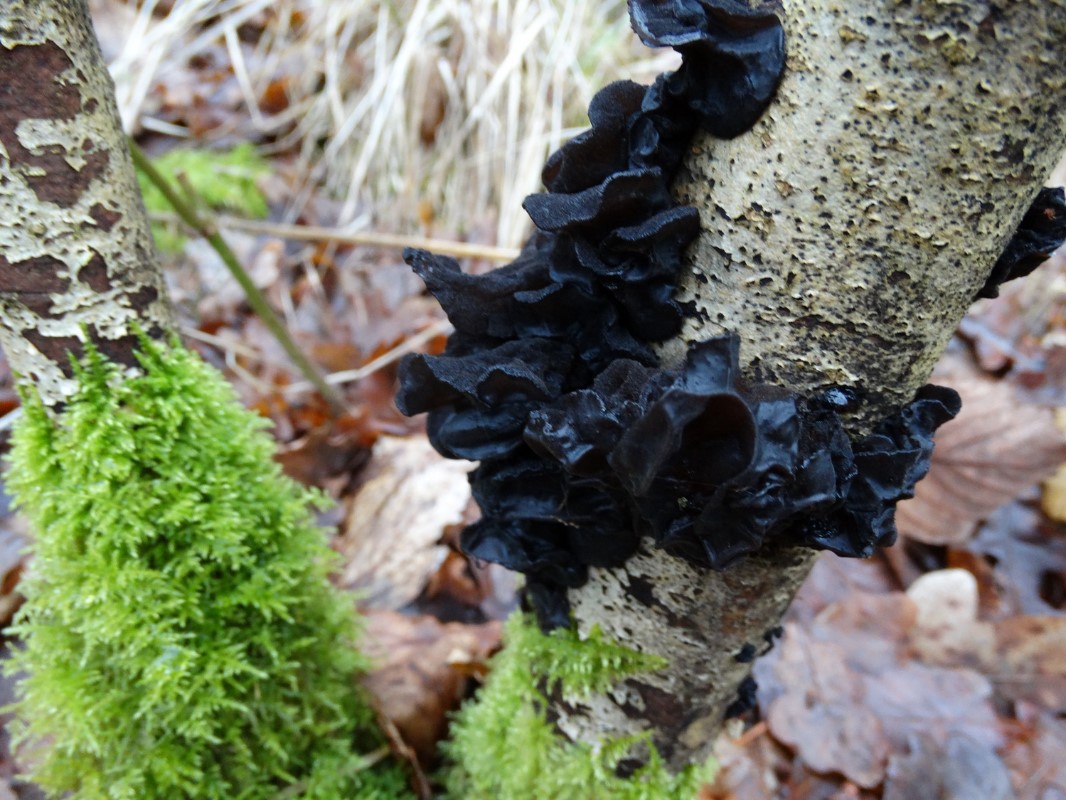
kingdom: Fungi
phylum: Basidiomycota
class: Agaricomycetes
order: Auriculariales
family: Auriculariaceae
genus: Exidia
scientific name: Exidia glandulosa
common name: ege-bævretop
